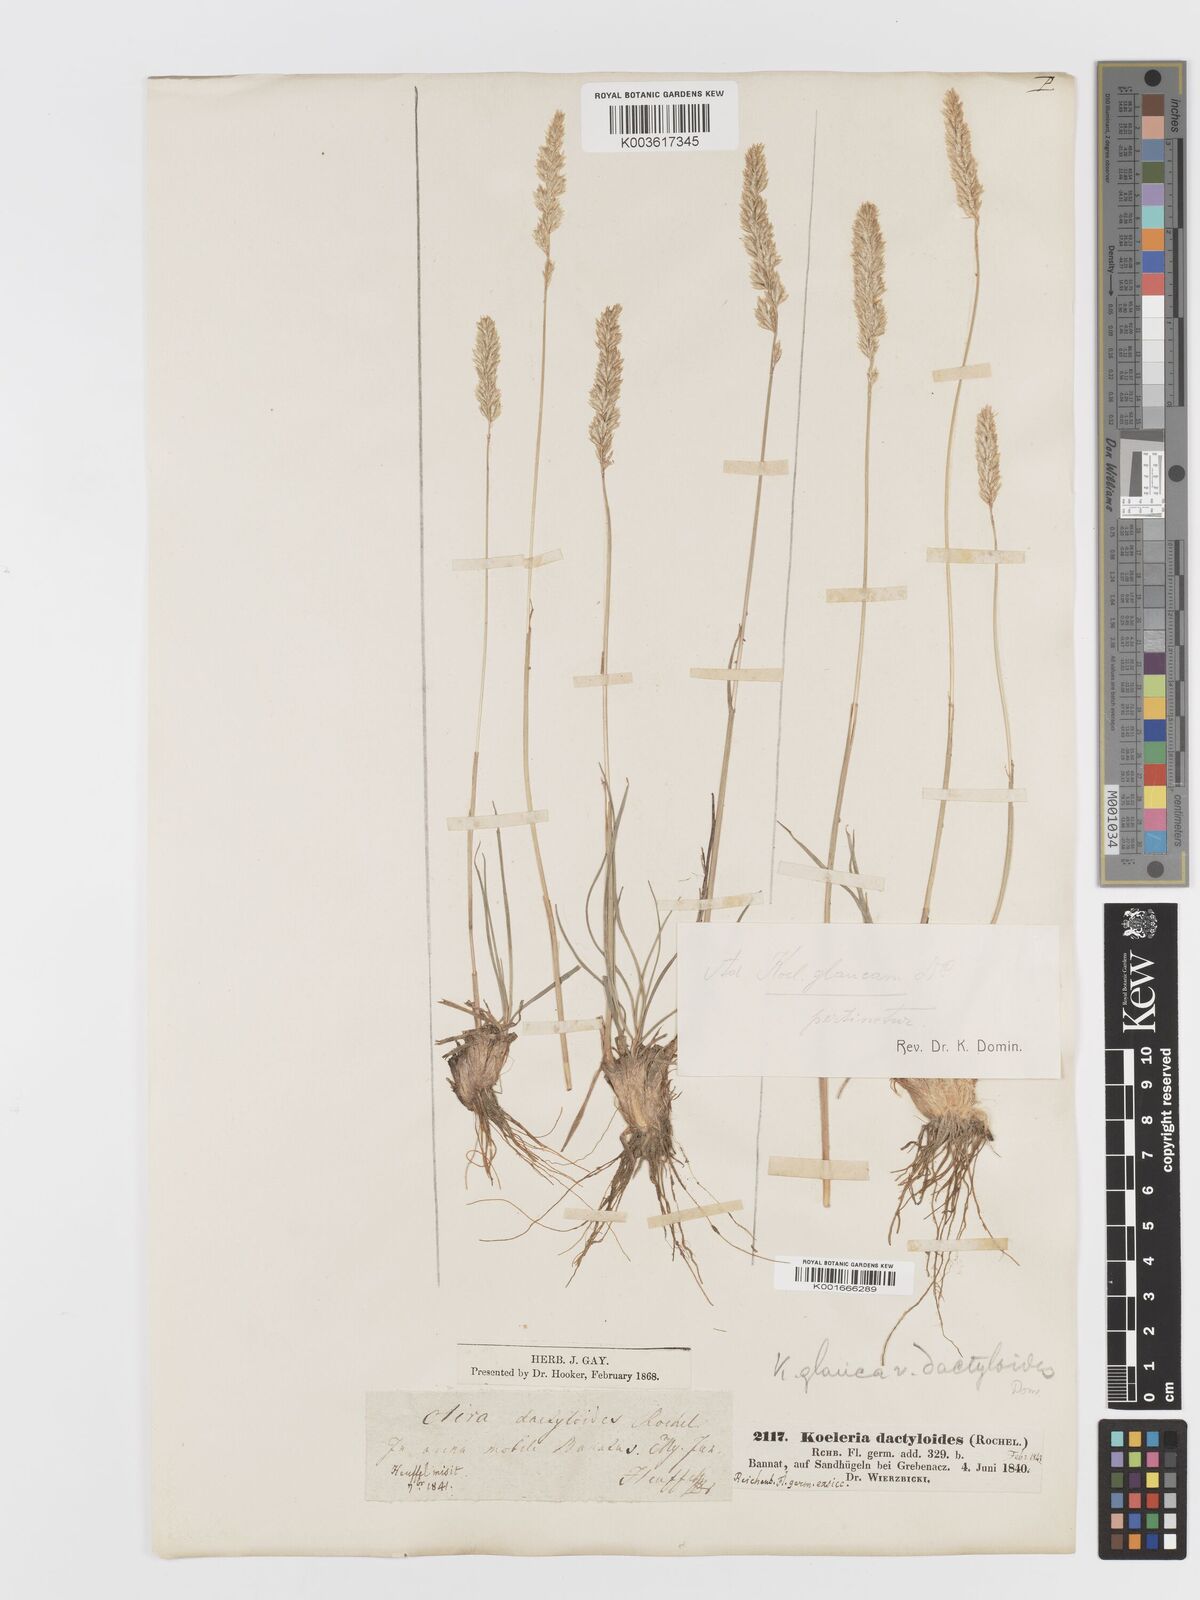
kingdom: Plantae
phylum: Tracheophyta
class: Liliopsida
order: Poales
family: Poaceae
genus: Koeleria
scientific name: Koeleria glauca
